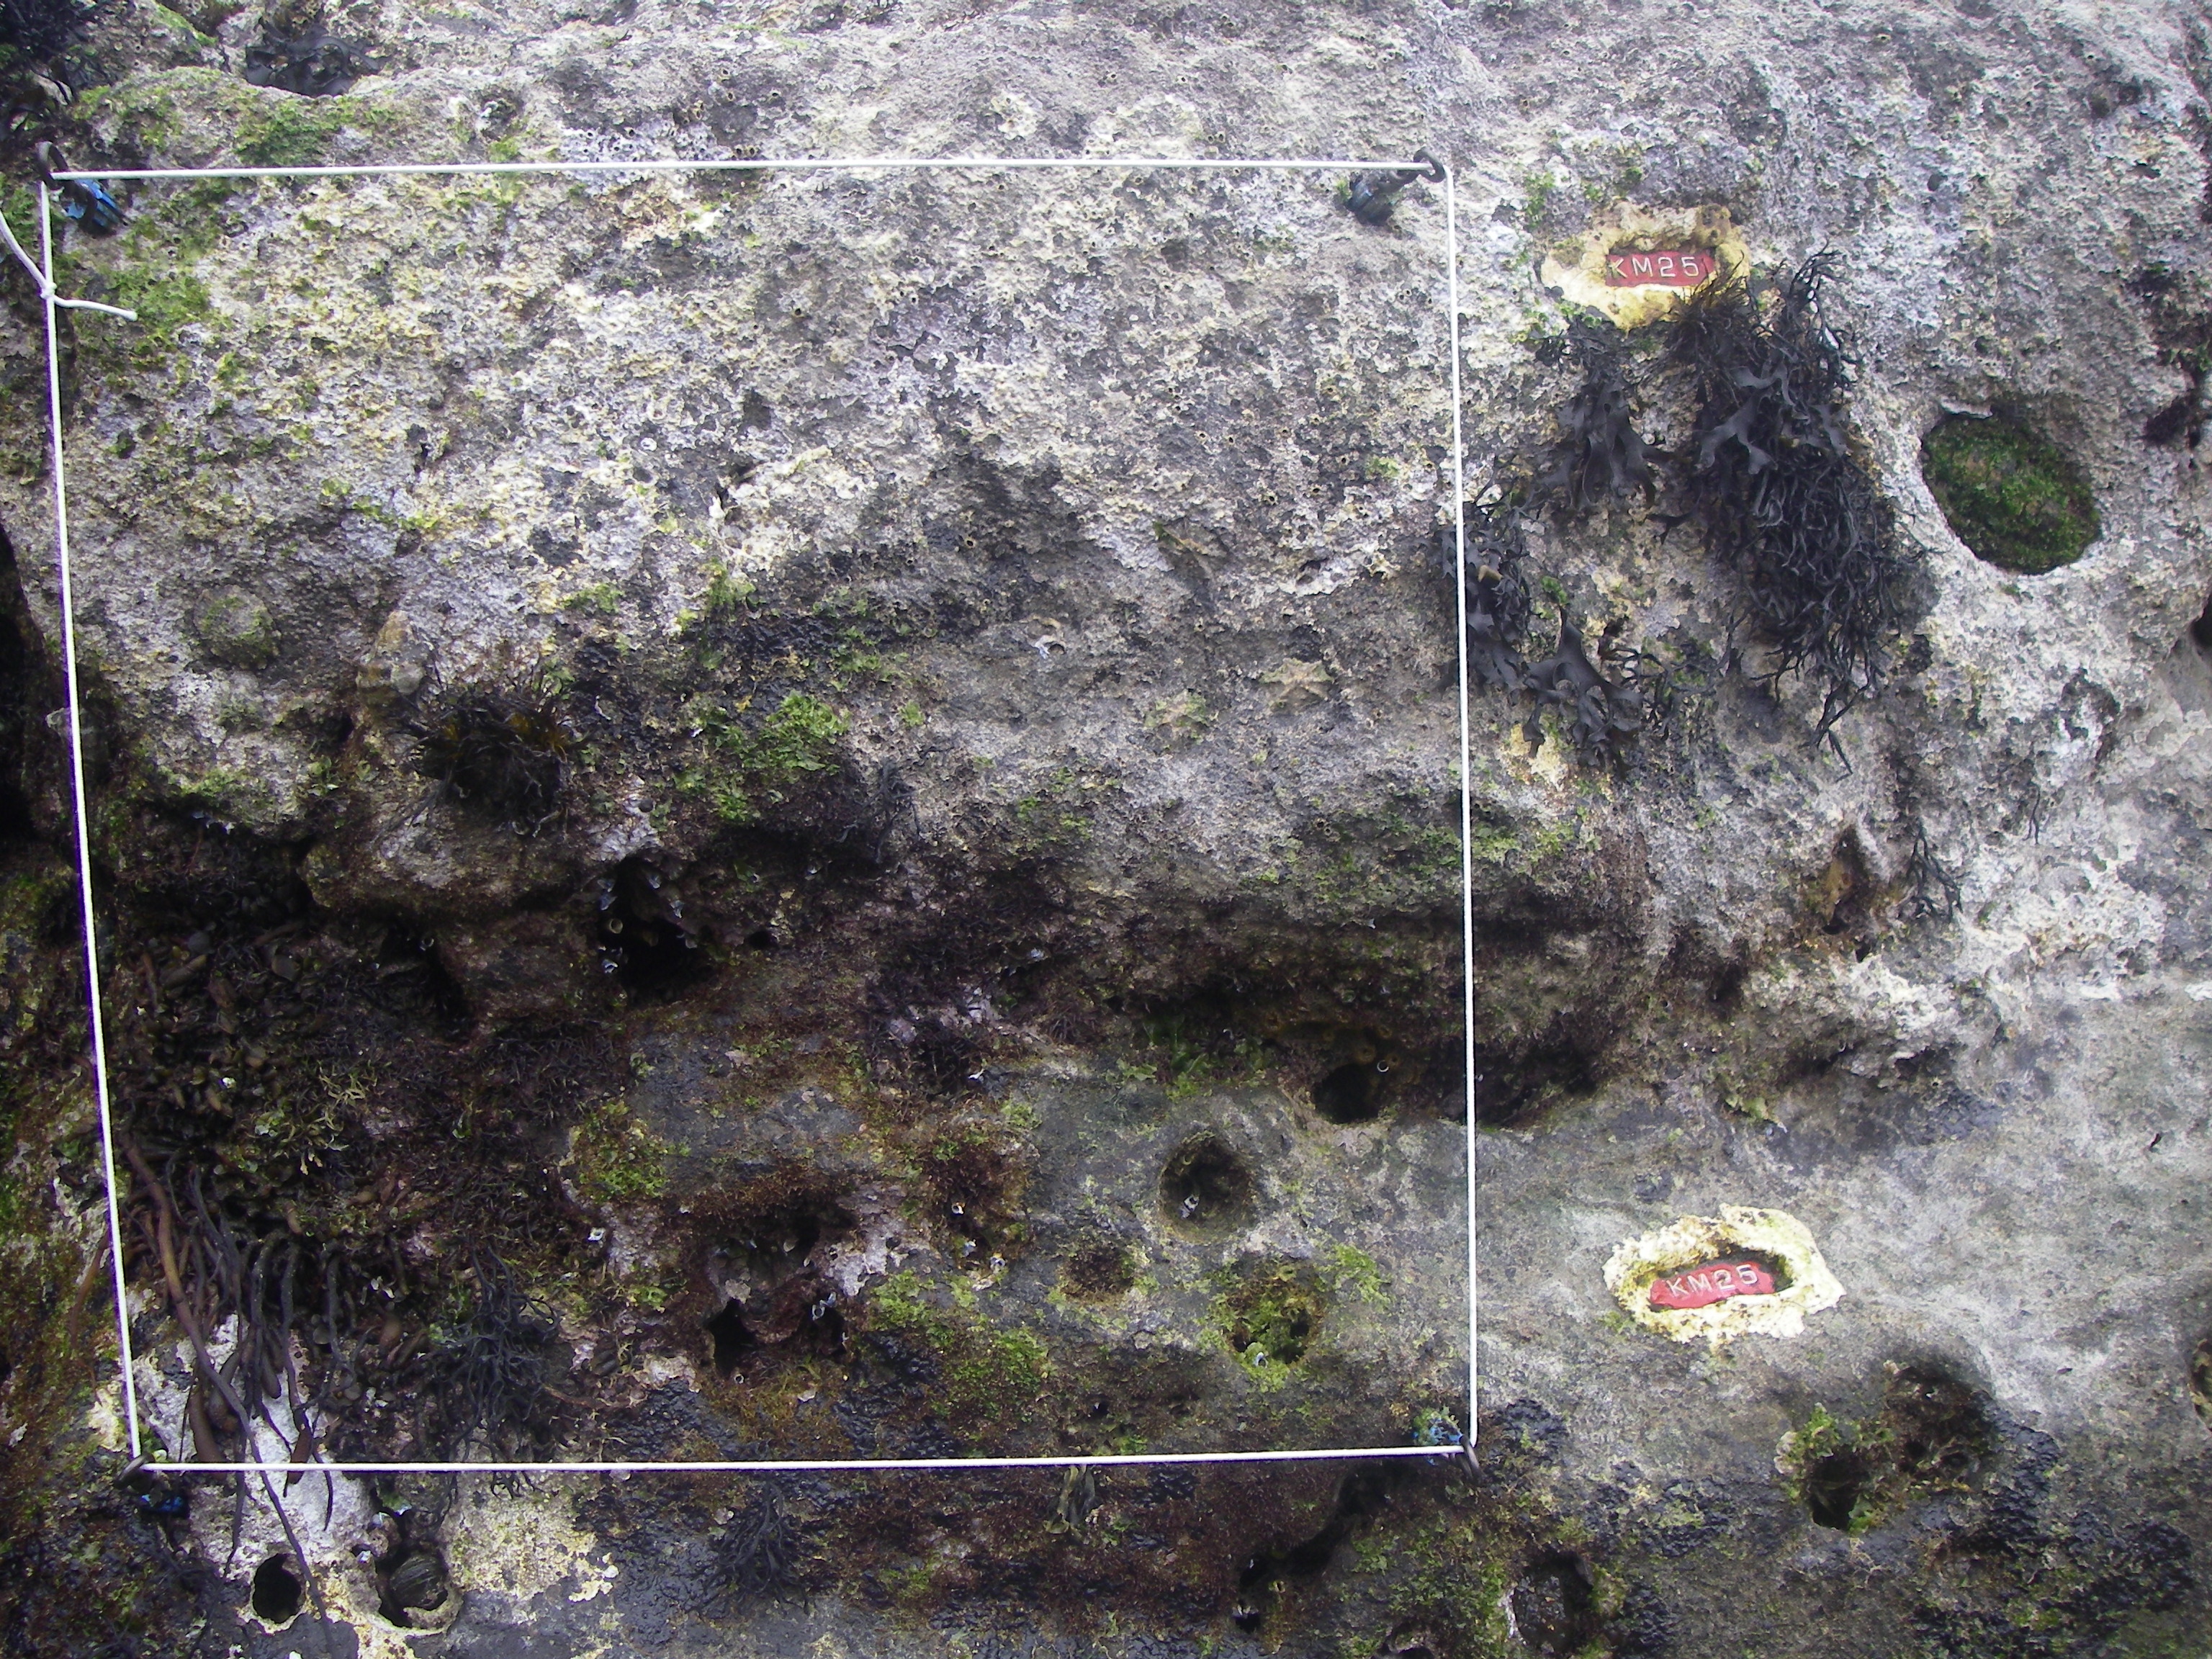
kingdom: Chromista
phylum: Ochrophyta
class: Phaeophyceae
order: Fucales
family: Sargassaceae
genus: Sargassum
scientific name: Sargassum fusiforme
